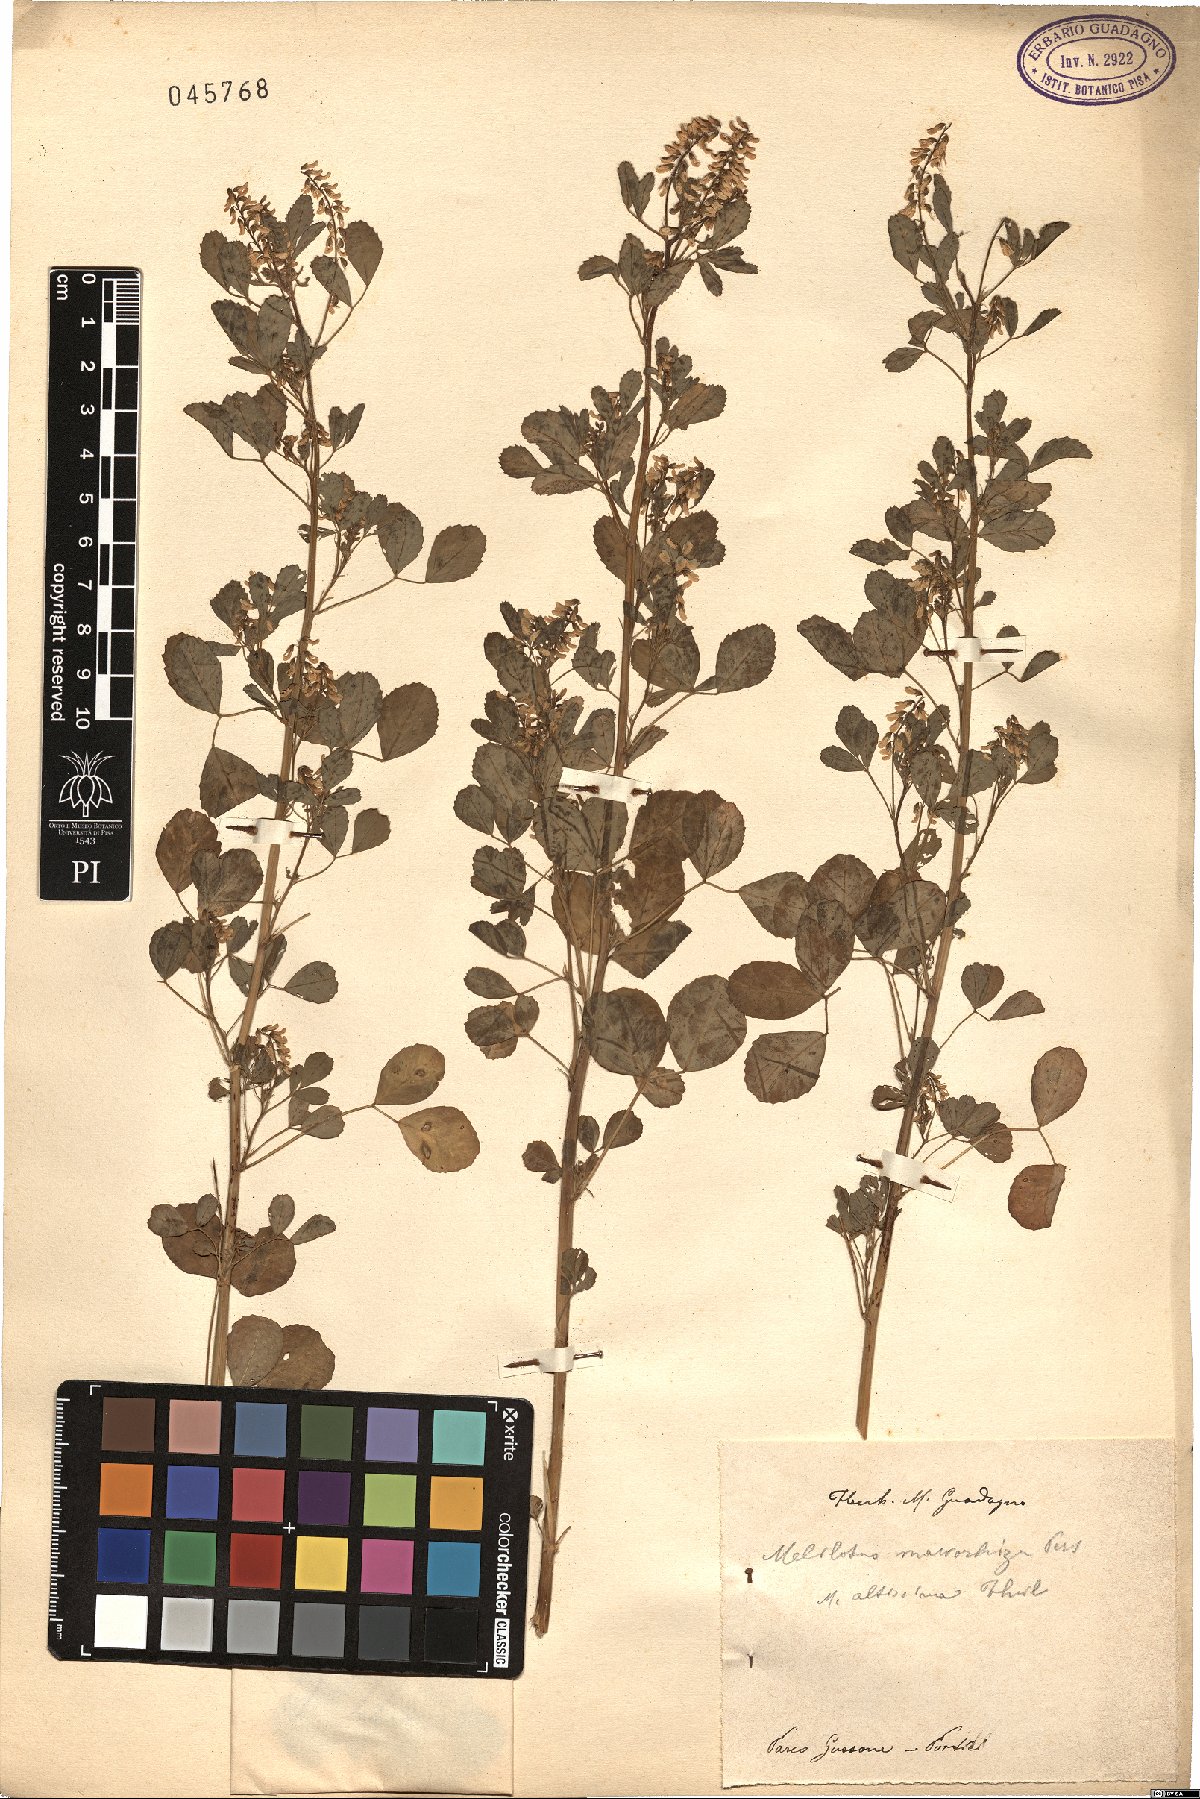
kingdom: Plantae
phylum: Tracheophyta
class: Magnoliopsida
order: Fabales
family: Fabaceae
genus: Melilotus
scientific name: Melilotus altissimus
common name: Tall melilot
